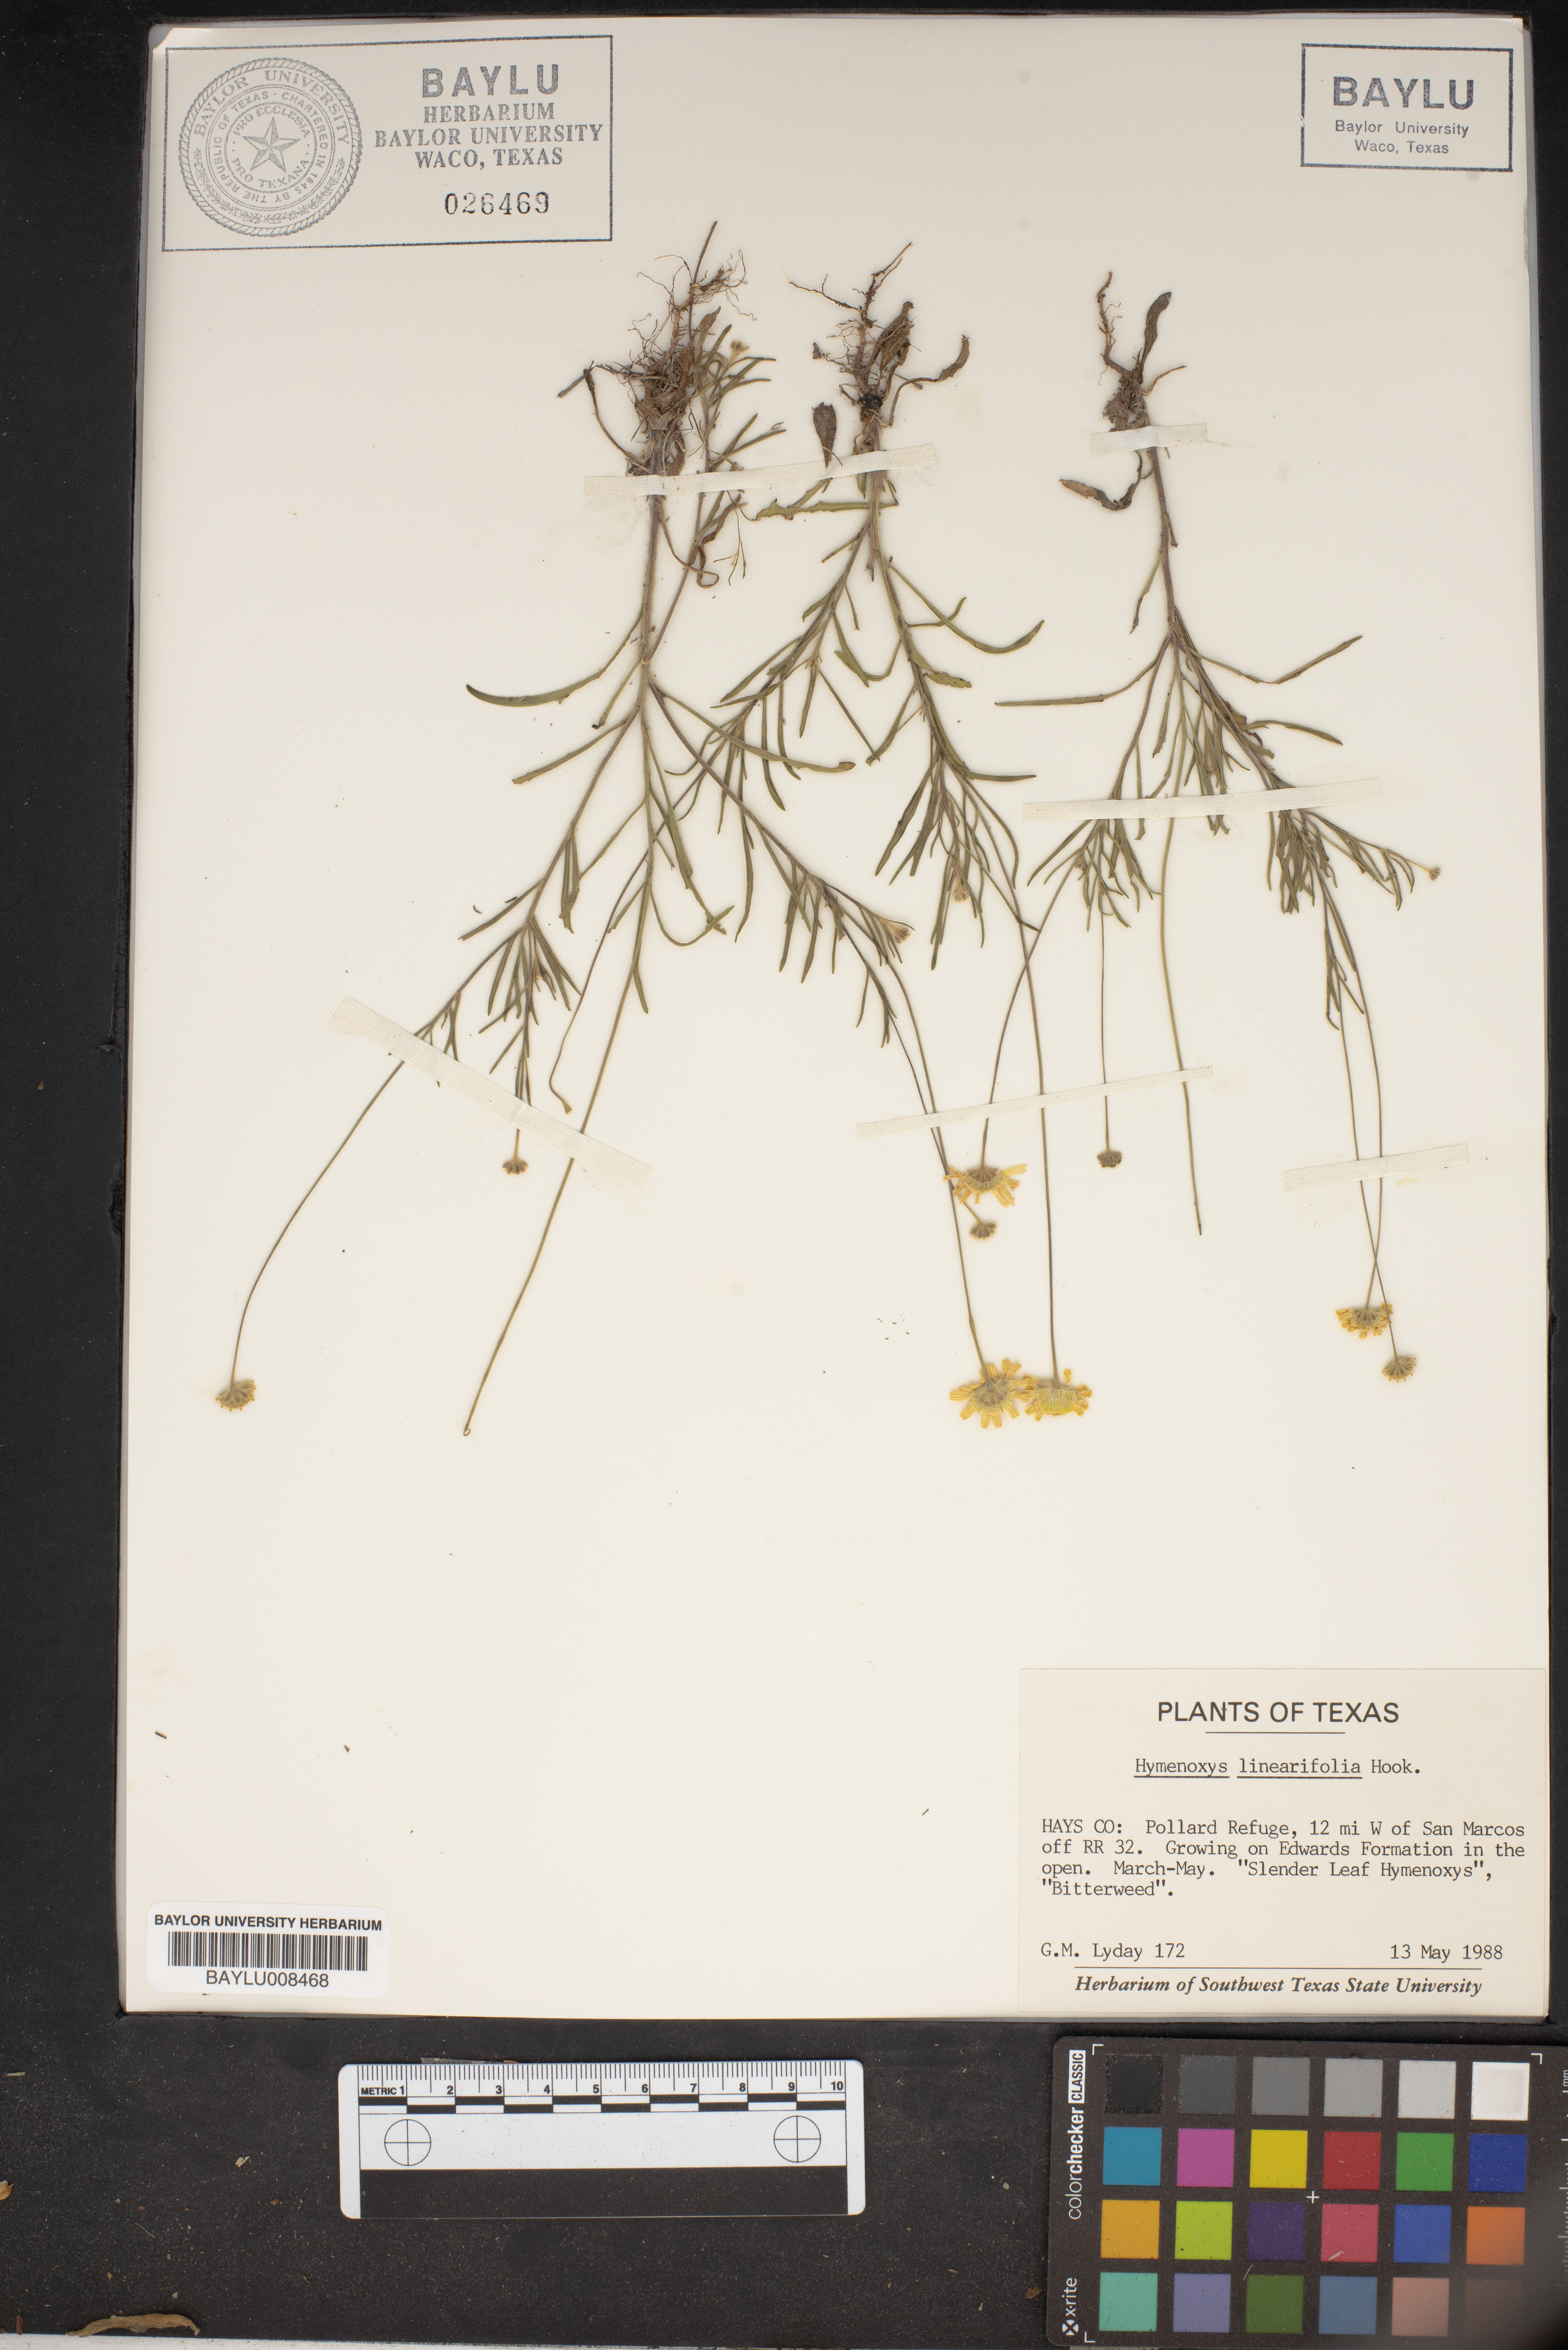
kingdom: Plantae
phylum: Tracheophyta
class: Magnoliopsida
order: Asterales
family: Asteraceae
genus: Tetraneuris
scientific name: Tetraneuris linearifolia
